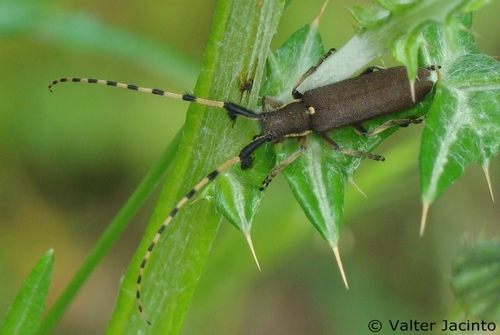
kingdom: Animalia
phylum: Arthropoda
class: Insecta
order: Coleoptera
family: Cerambycidae
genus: Agapanthia
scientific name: Agapanthia annularis
